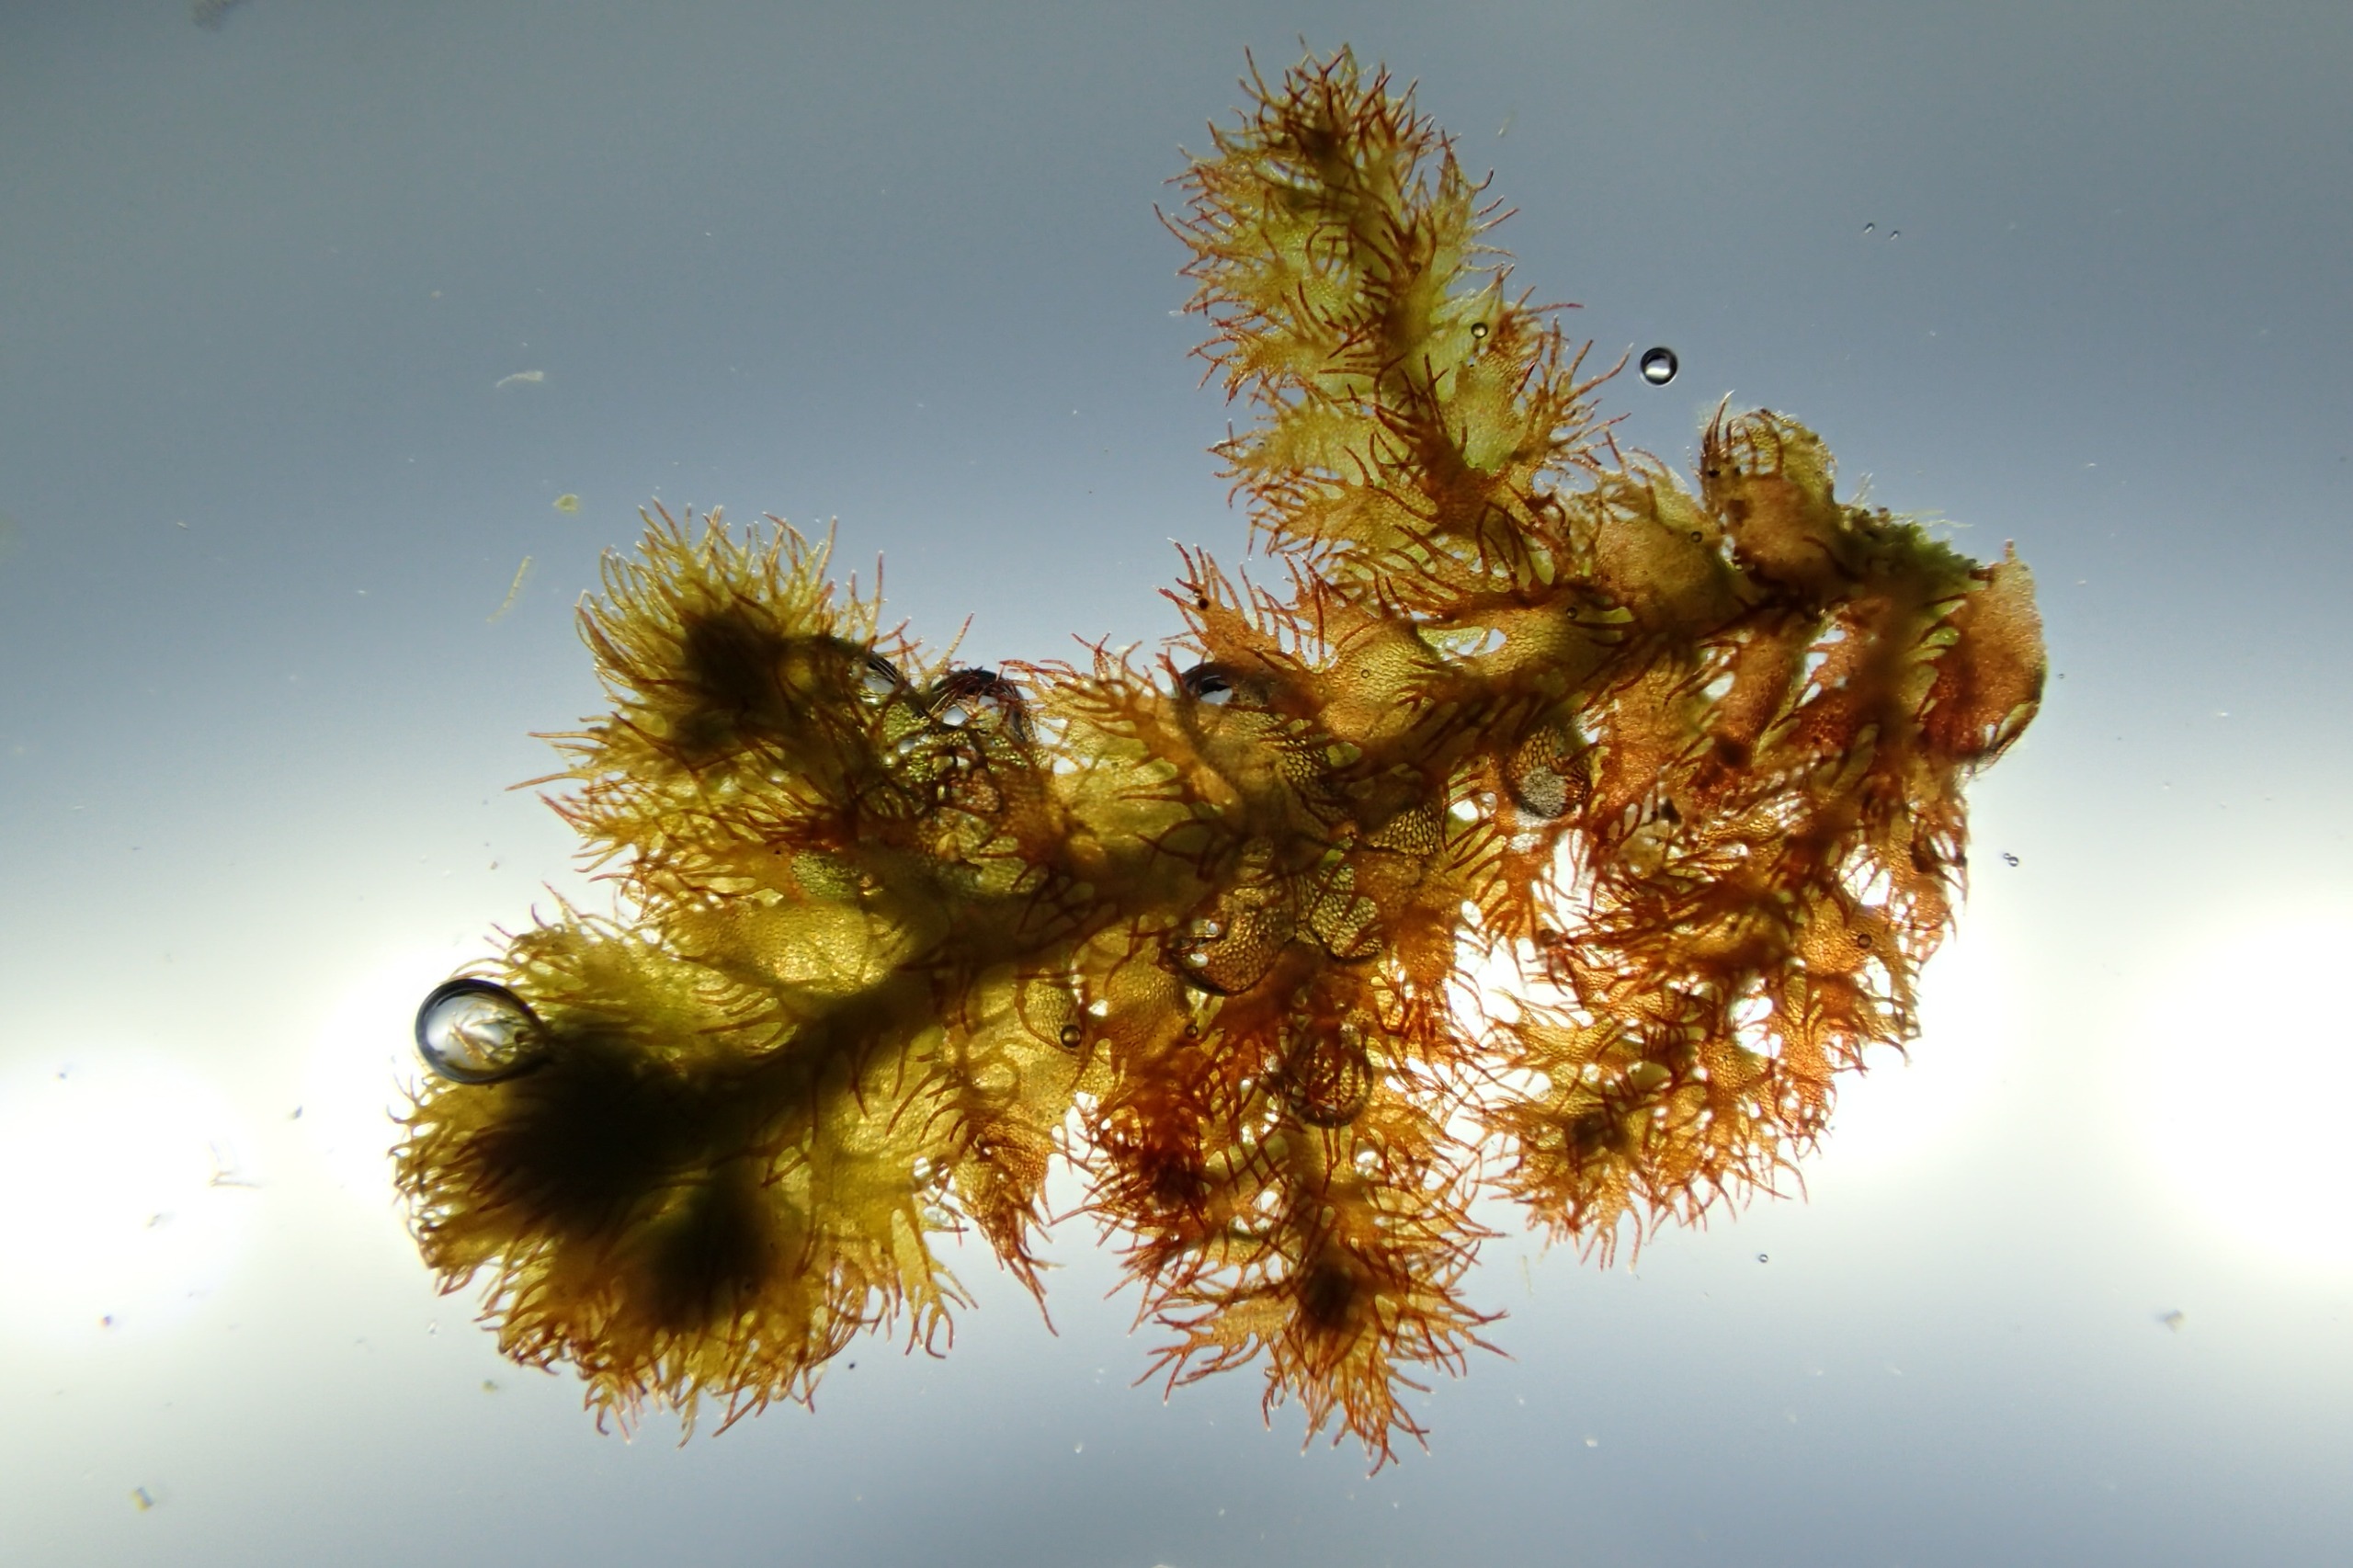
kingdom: Plantae
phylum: Marchantiophyta
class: Jungermanniopsida
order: Ptilidiales
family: Ptilidiaceae
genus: Ptilidium
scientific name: Ptilidium ciliare
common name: Almindelig frynsemos
